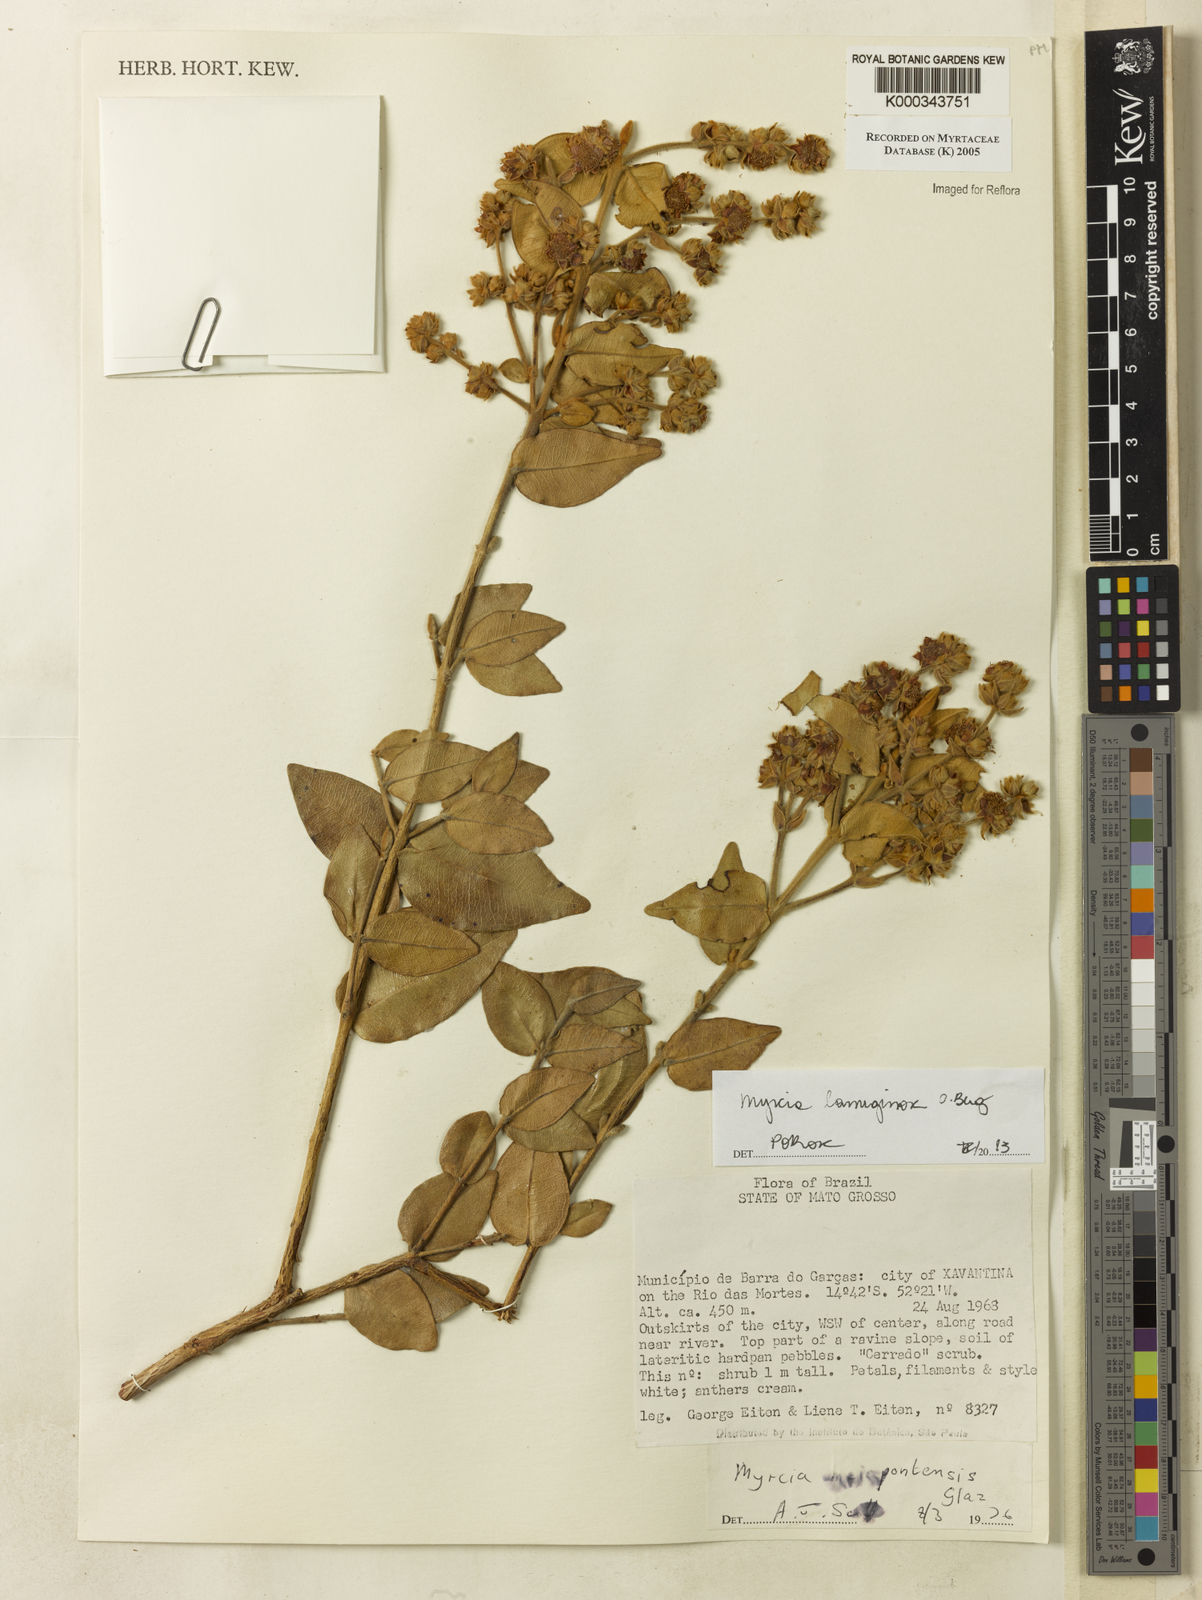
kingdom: Plantae
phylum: Tracheophyta
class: Magnoliopsida
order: Myrtales
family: Myrtaceae
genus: Myrcia
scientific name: Myrcia
